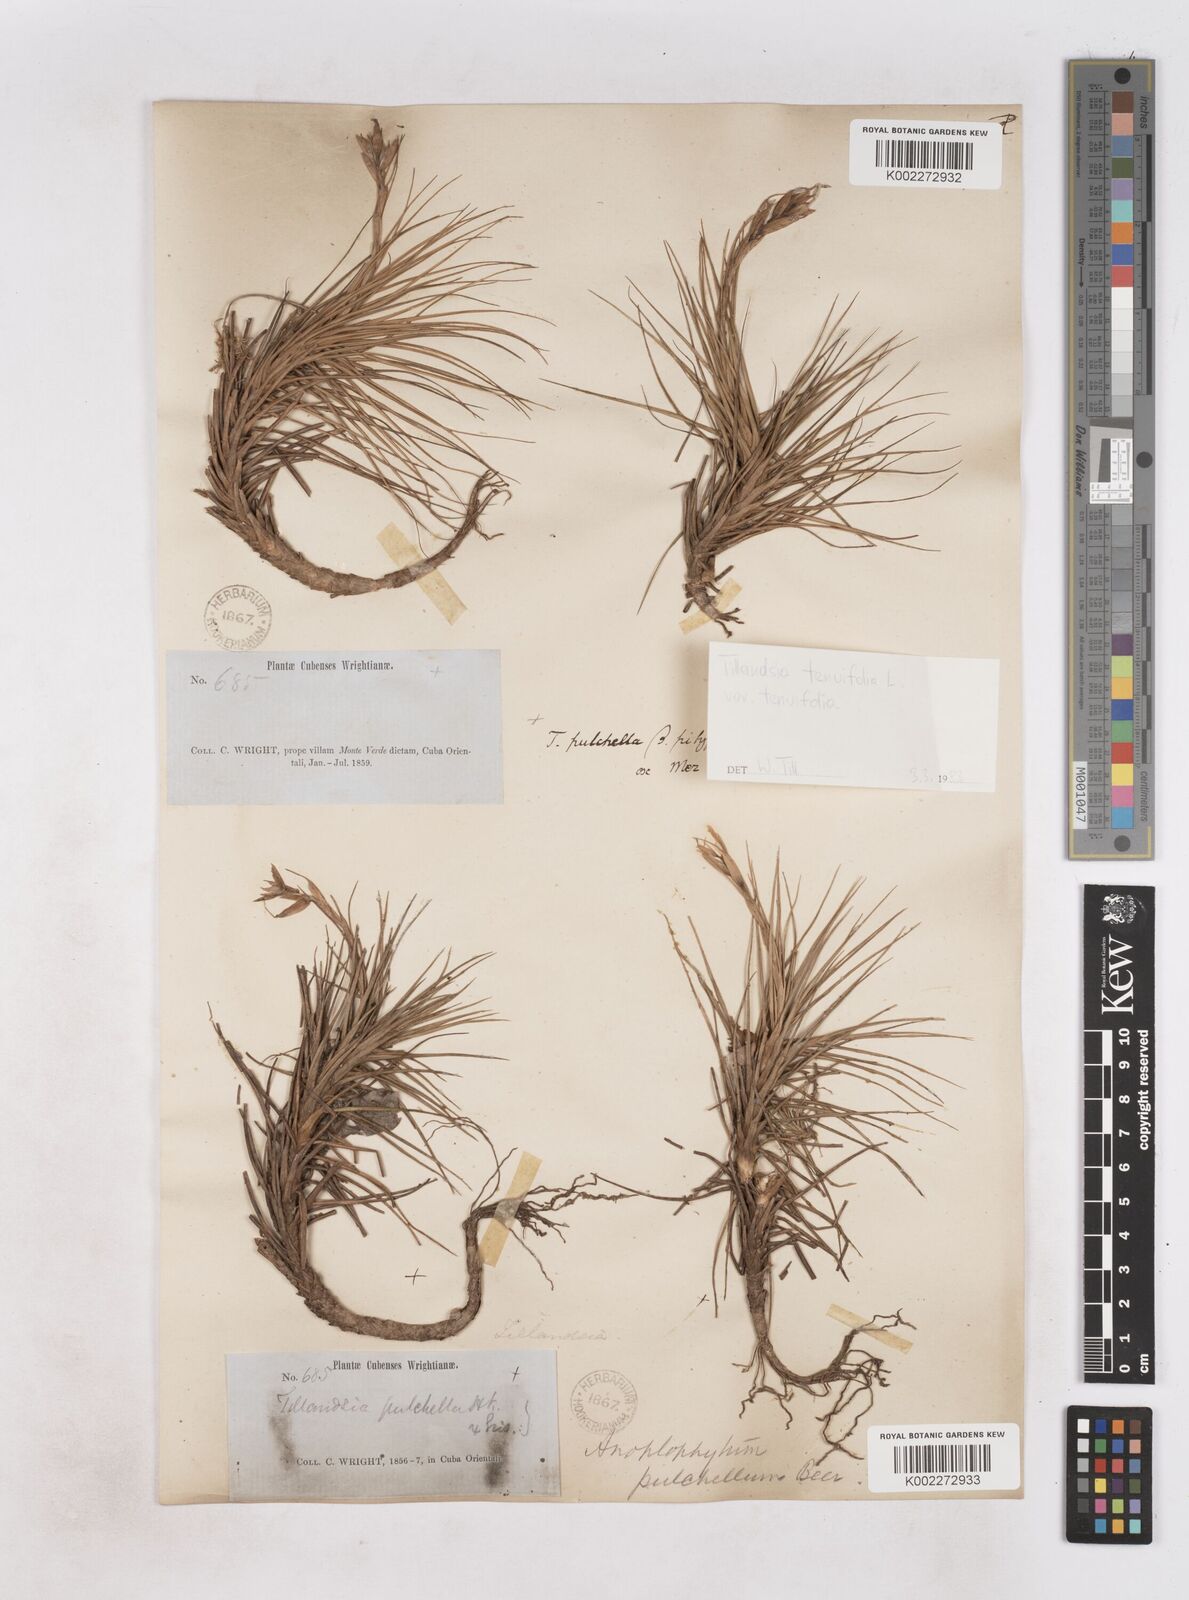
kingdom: Plantae
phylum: Tracheophyta
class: Liliopsida
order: Poales
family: Bromeliaceae
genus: Tillandsia
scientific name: Tillandsia tenuifolia
